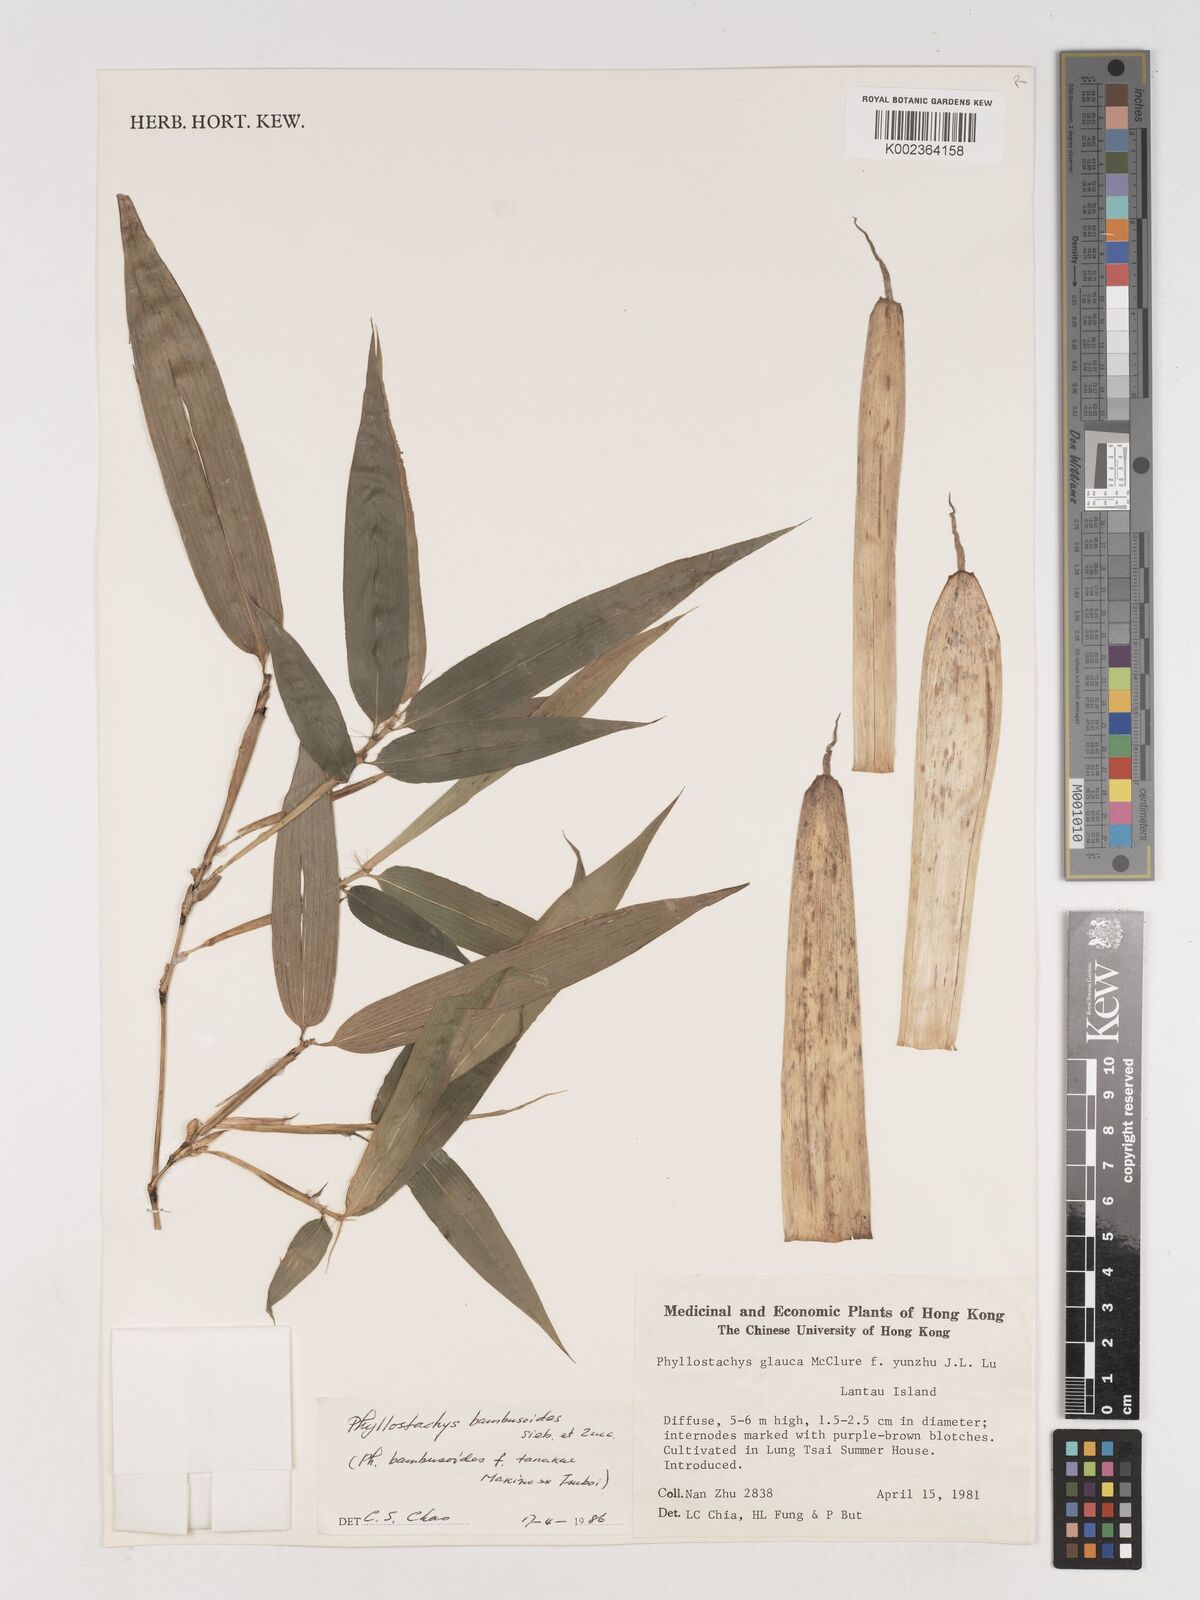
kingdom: Plantae
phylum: Tracheophyta
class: Liliopsida
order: Poales
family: Poaceae
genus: Phyllostachys
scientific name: Phyllostachys reticulata
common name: Bamboo
